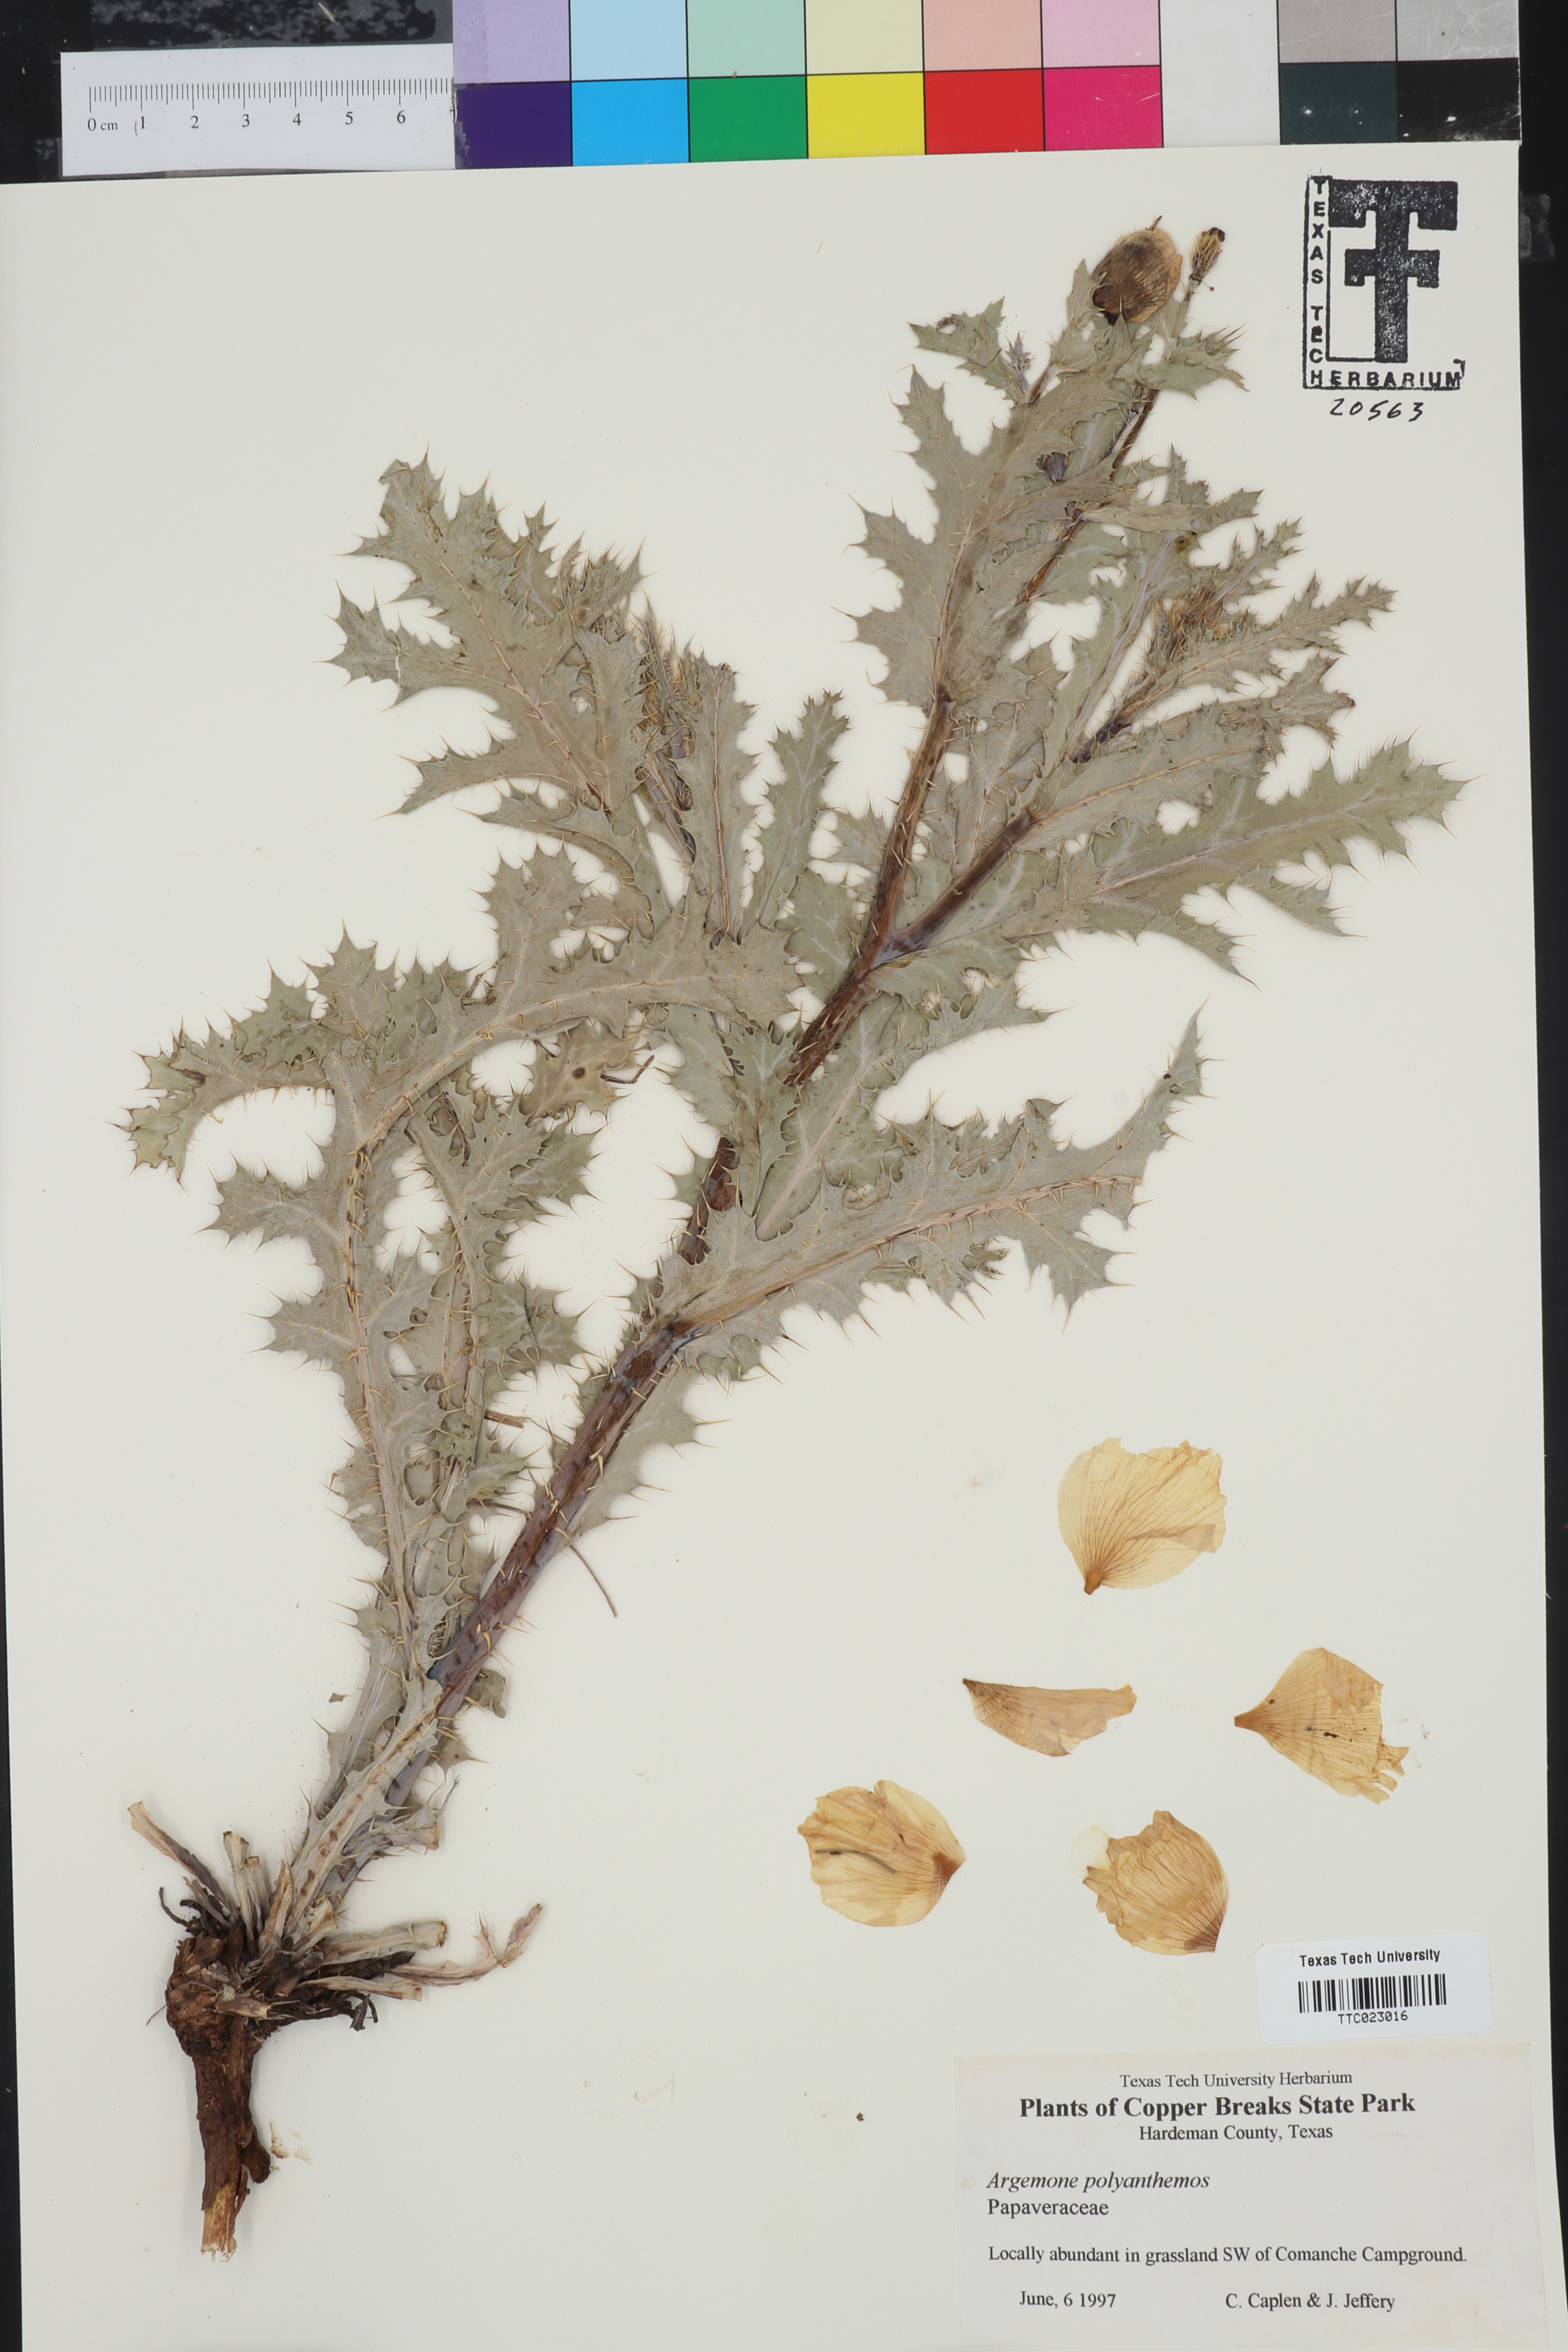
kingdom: Plantae
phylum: Tracheophyta
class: Magnoliopsida
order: Ranunculales
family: Papaveraceae
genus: Argemone
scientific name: Argemone polyanthemos
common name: Plains prickly-poppy
